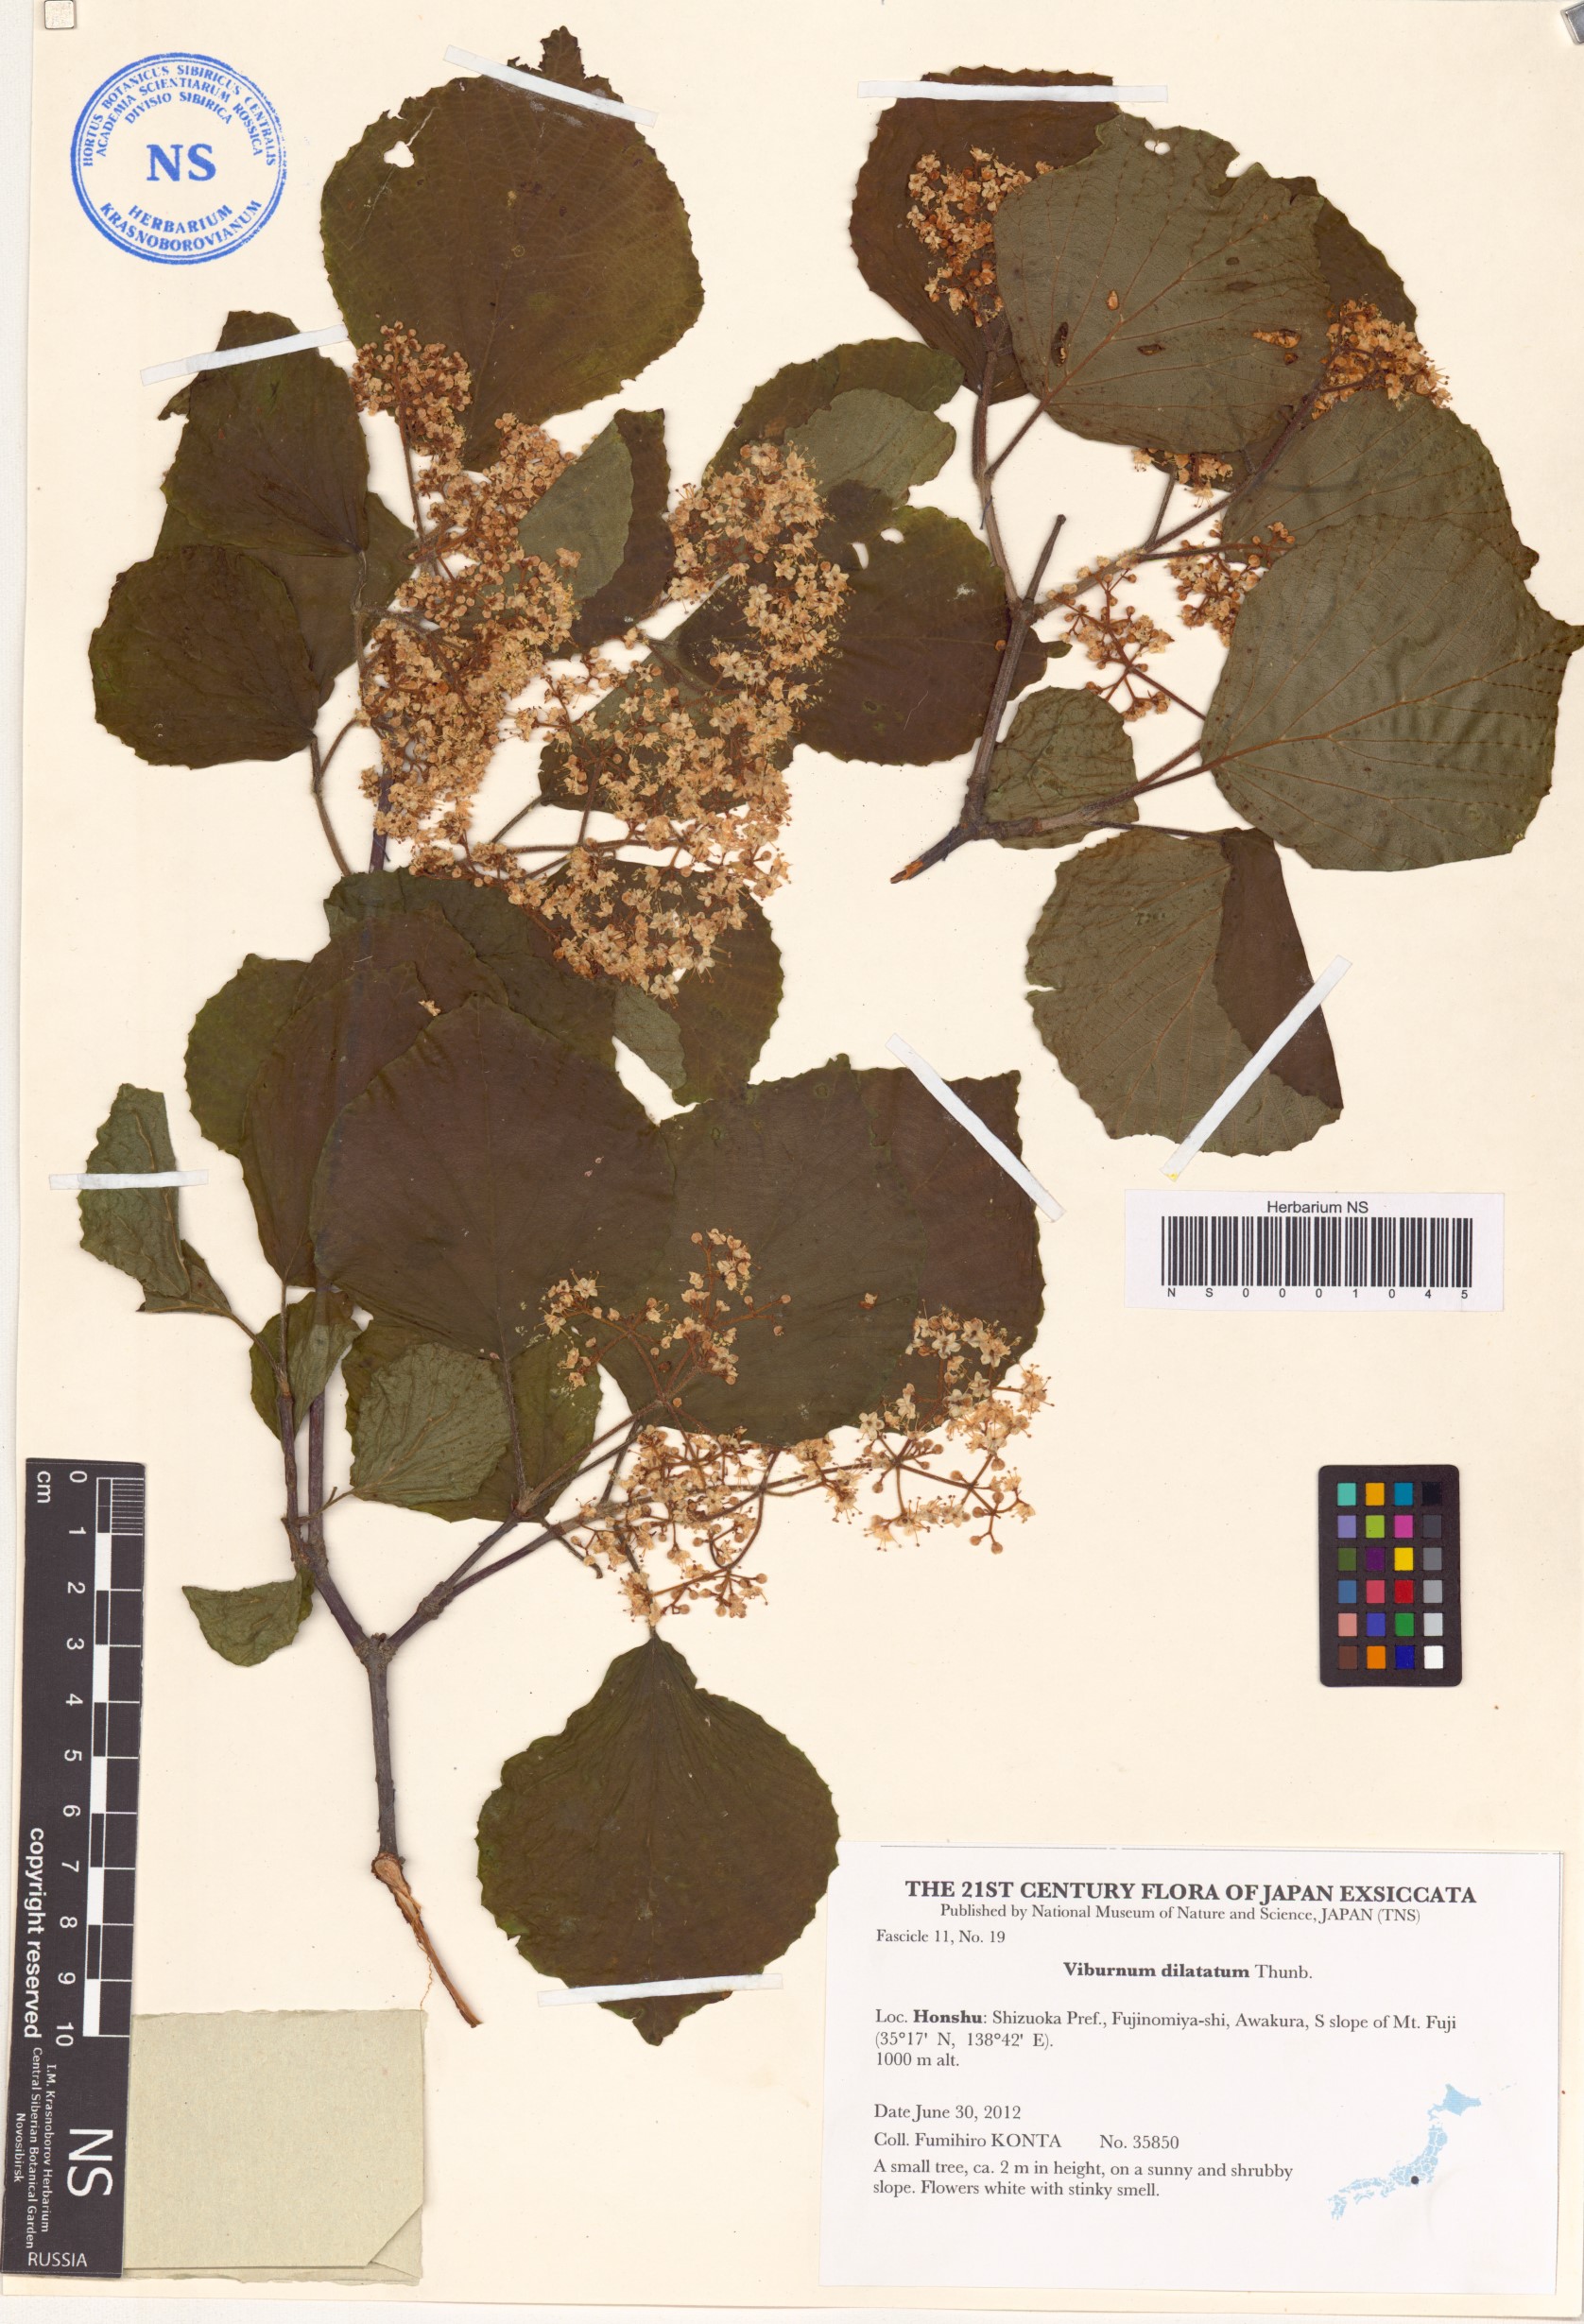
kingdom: Plantae
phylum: Tracheophyta
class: Magnoliopsida
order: Dipsacales
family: Viburnaceae
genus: Viburnum
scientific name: Viburnum dilatatum
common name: Linden arrowwood
